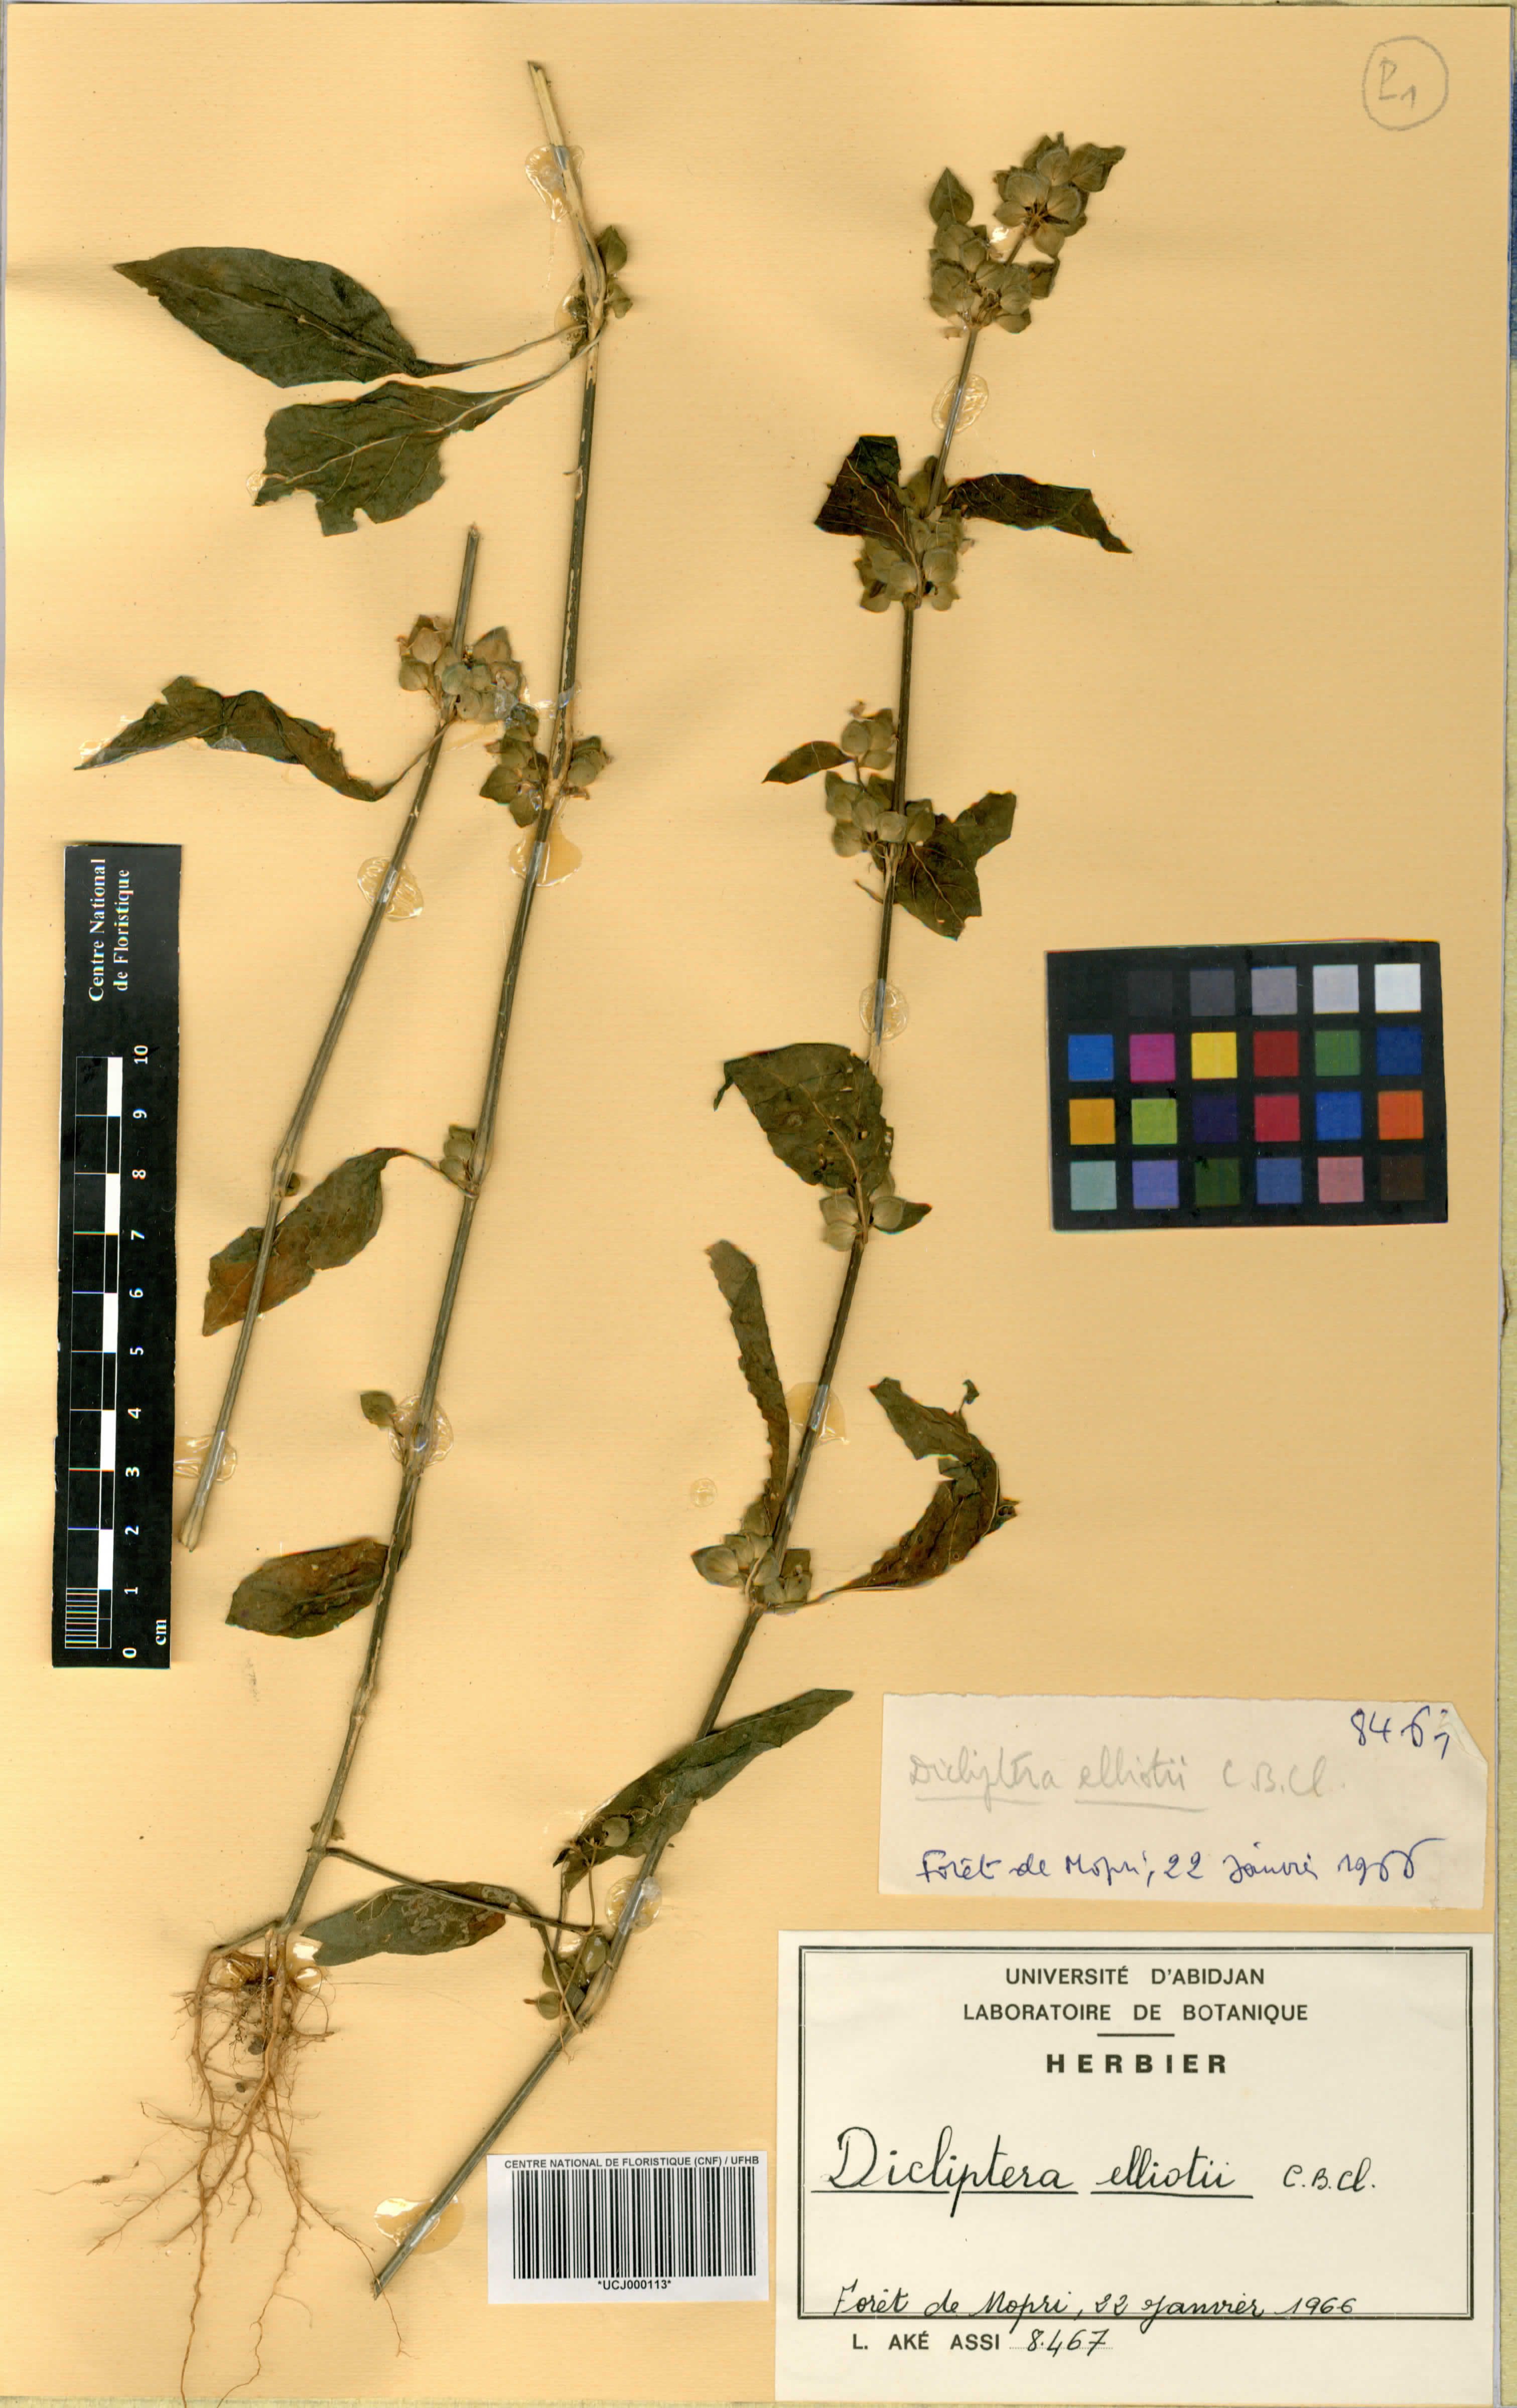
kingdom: Plantae
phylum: Tracheophyta
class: Magnoliopsida
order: Lamiales
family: Acanthaceae
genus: Dicliptera
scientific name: Dicliptera elliotii
